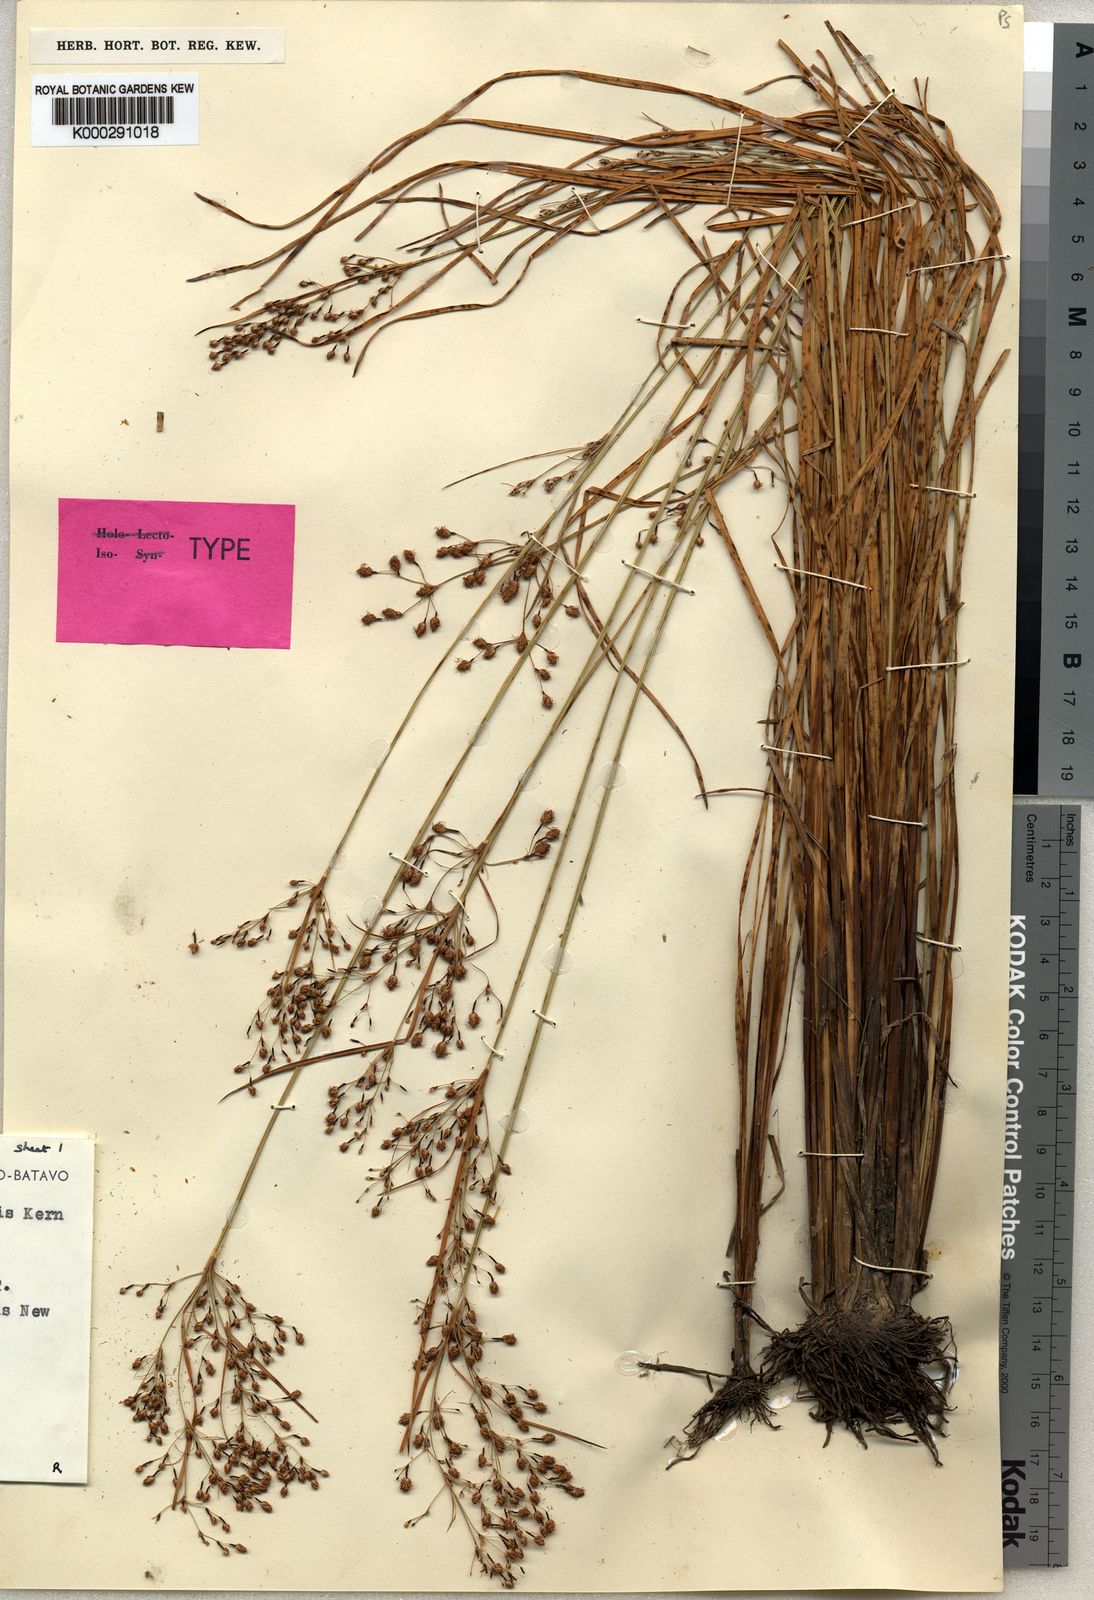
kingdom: Plantae
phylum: Tracheophyta
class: Liliopsida
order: Poales
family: Cyperaceae
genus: Fimbristylis
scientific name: Fimbristylis blepharolepis
